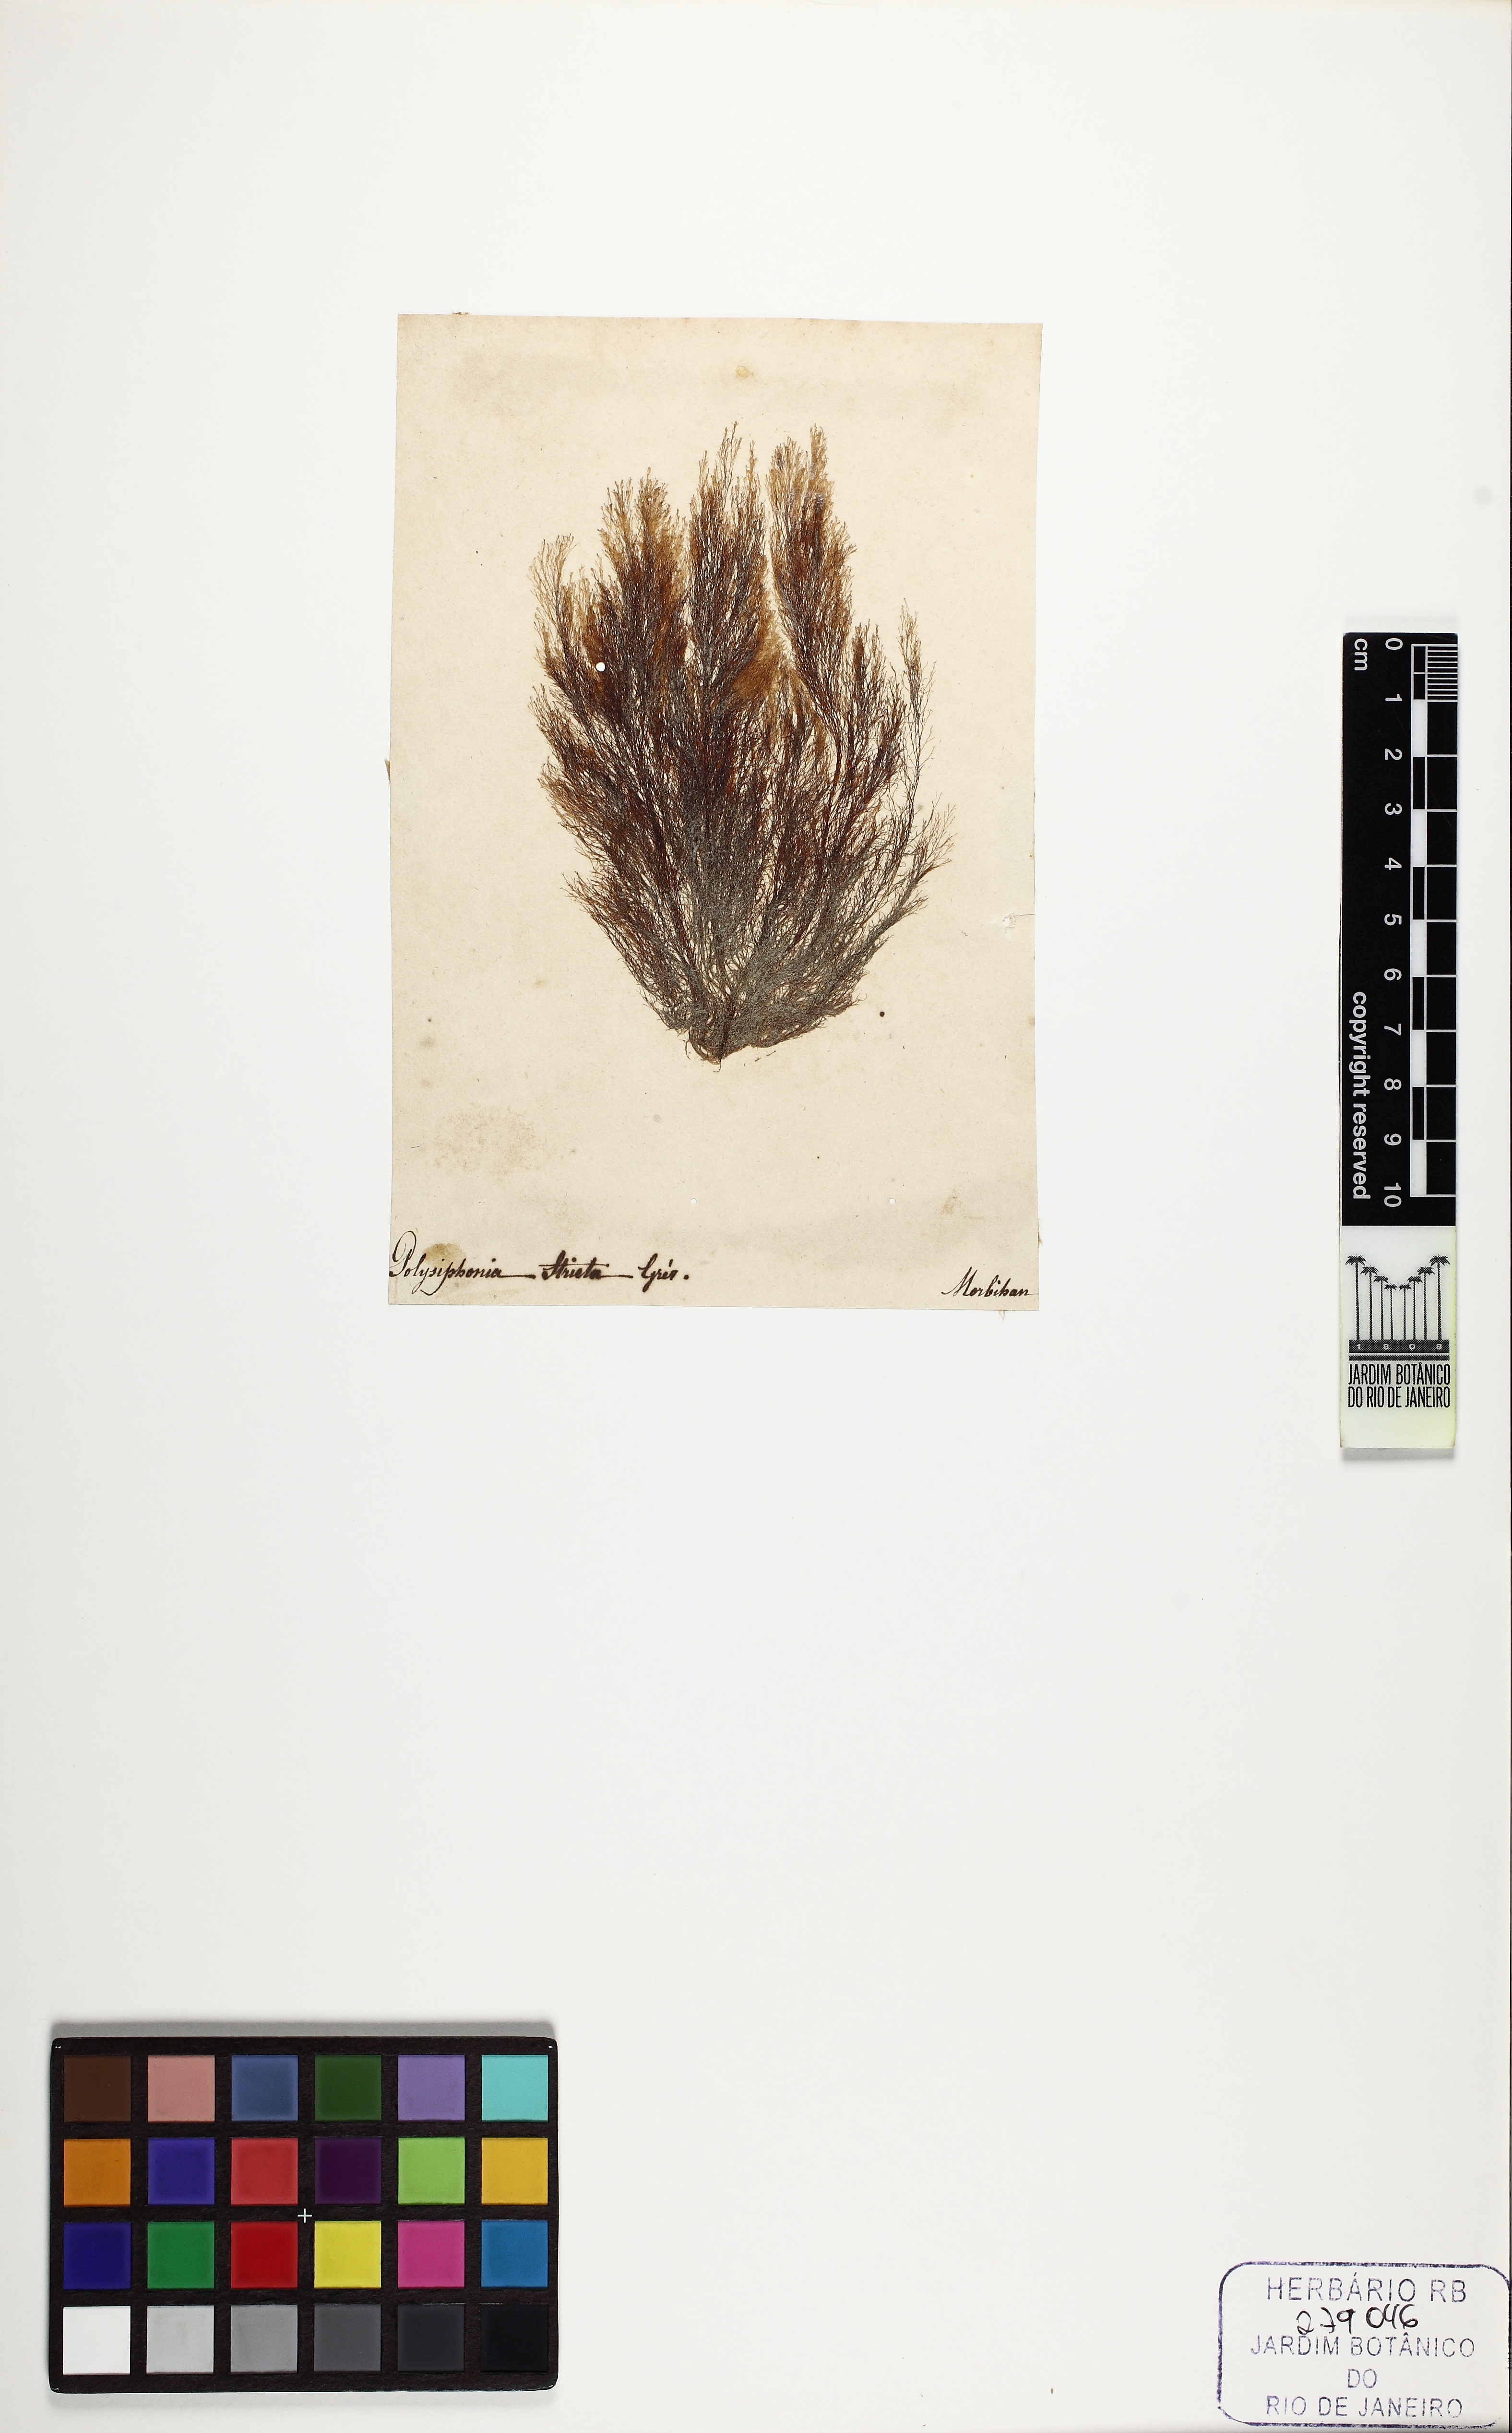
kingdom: Plantae
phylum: Rhodophyta
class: Florideophyceae
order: Ceramiales
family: Rhodomelaceae
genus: Polysiphonia
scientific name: Polysiphonia stricta
